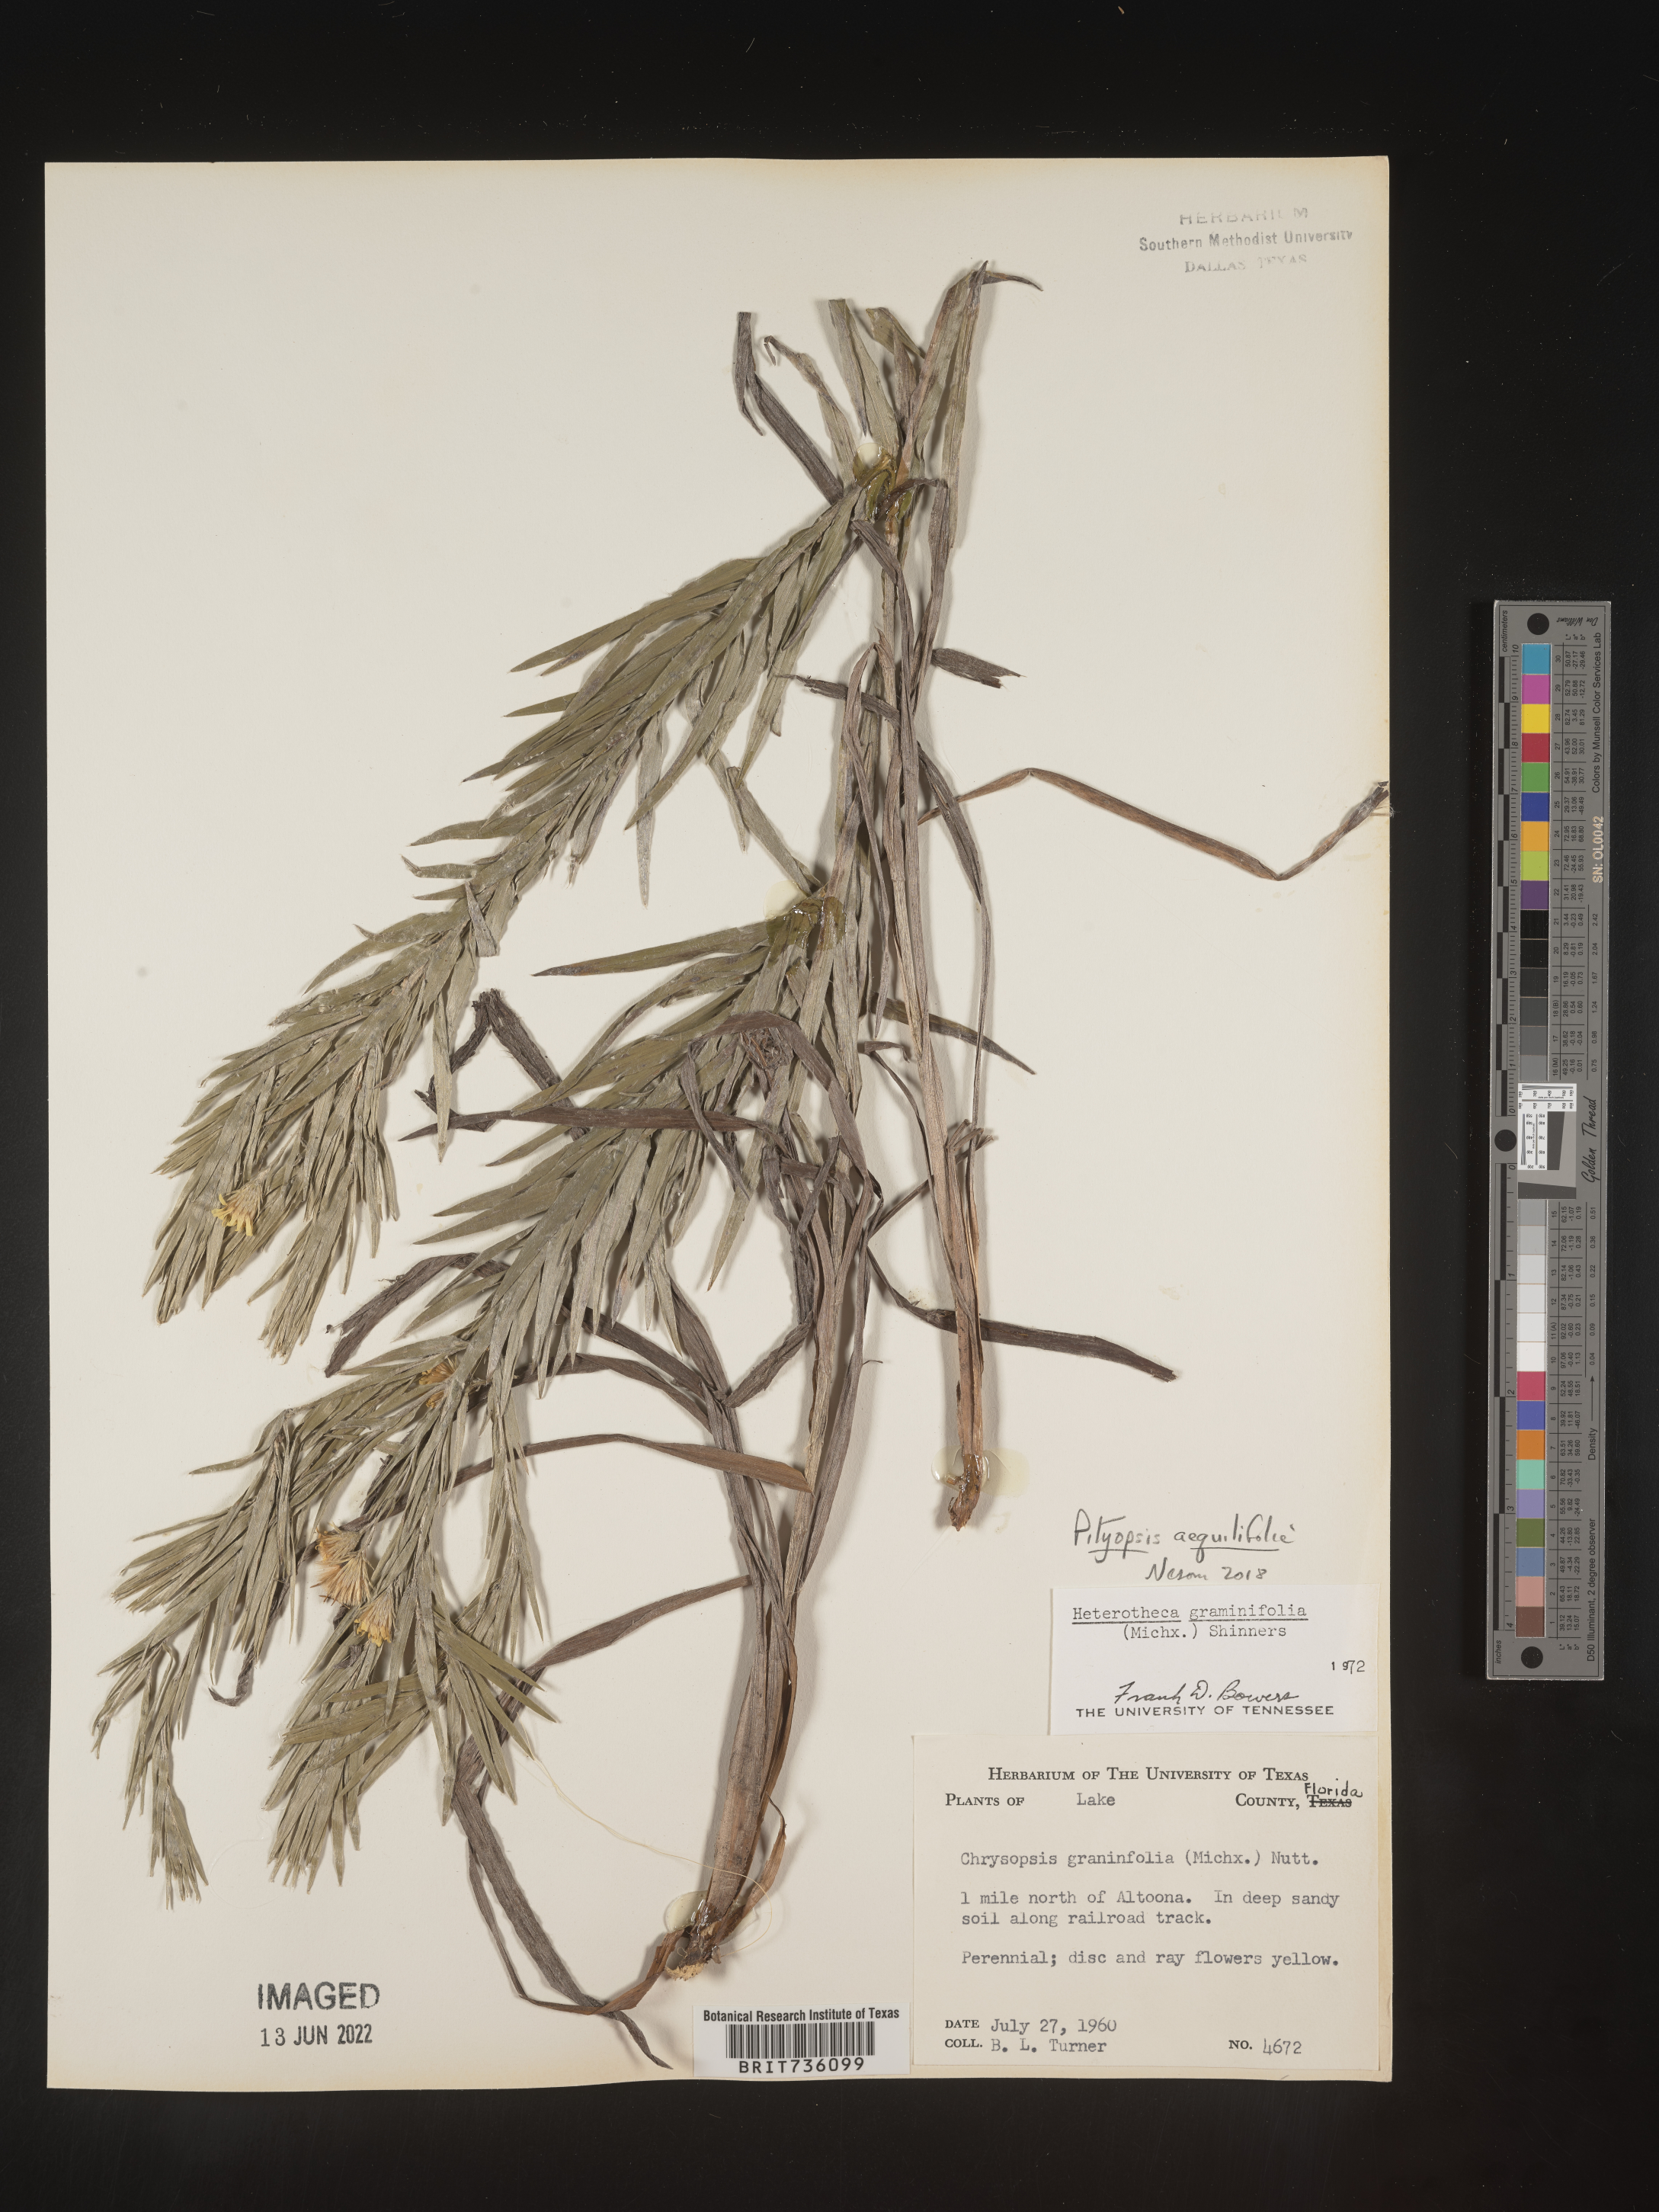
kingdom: Plantae
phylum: Tracheophyta
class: Magnoliopsida
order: Asterales
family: Asteraceae
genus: Pityopsis
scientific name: Pityopsis aequilifolia
